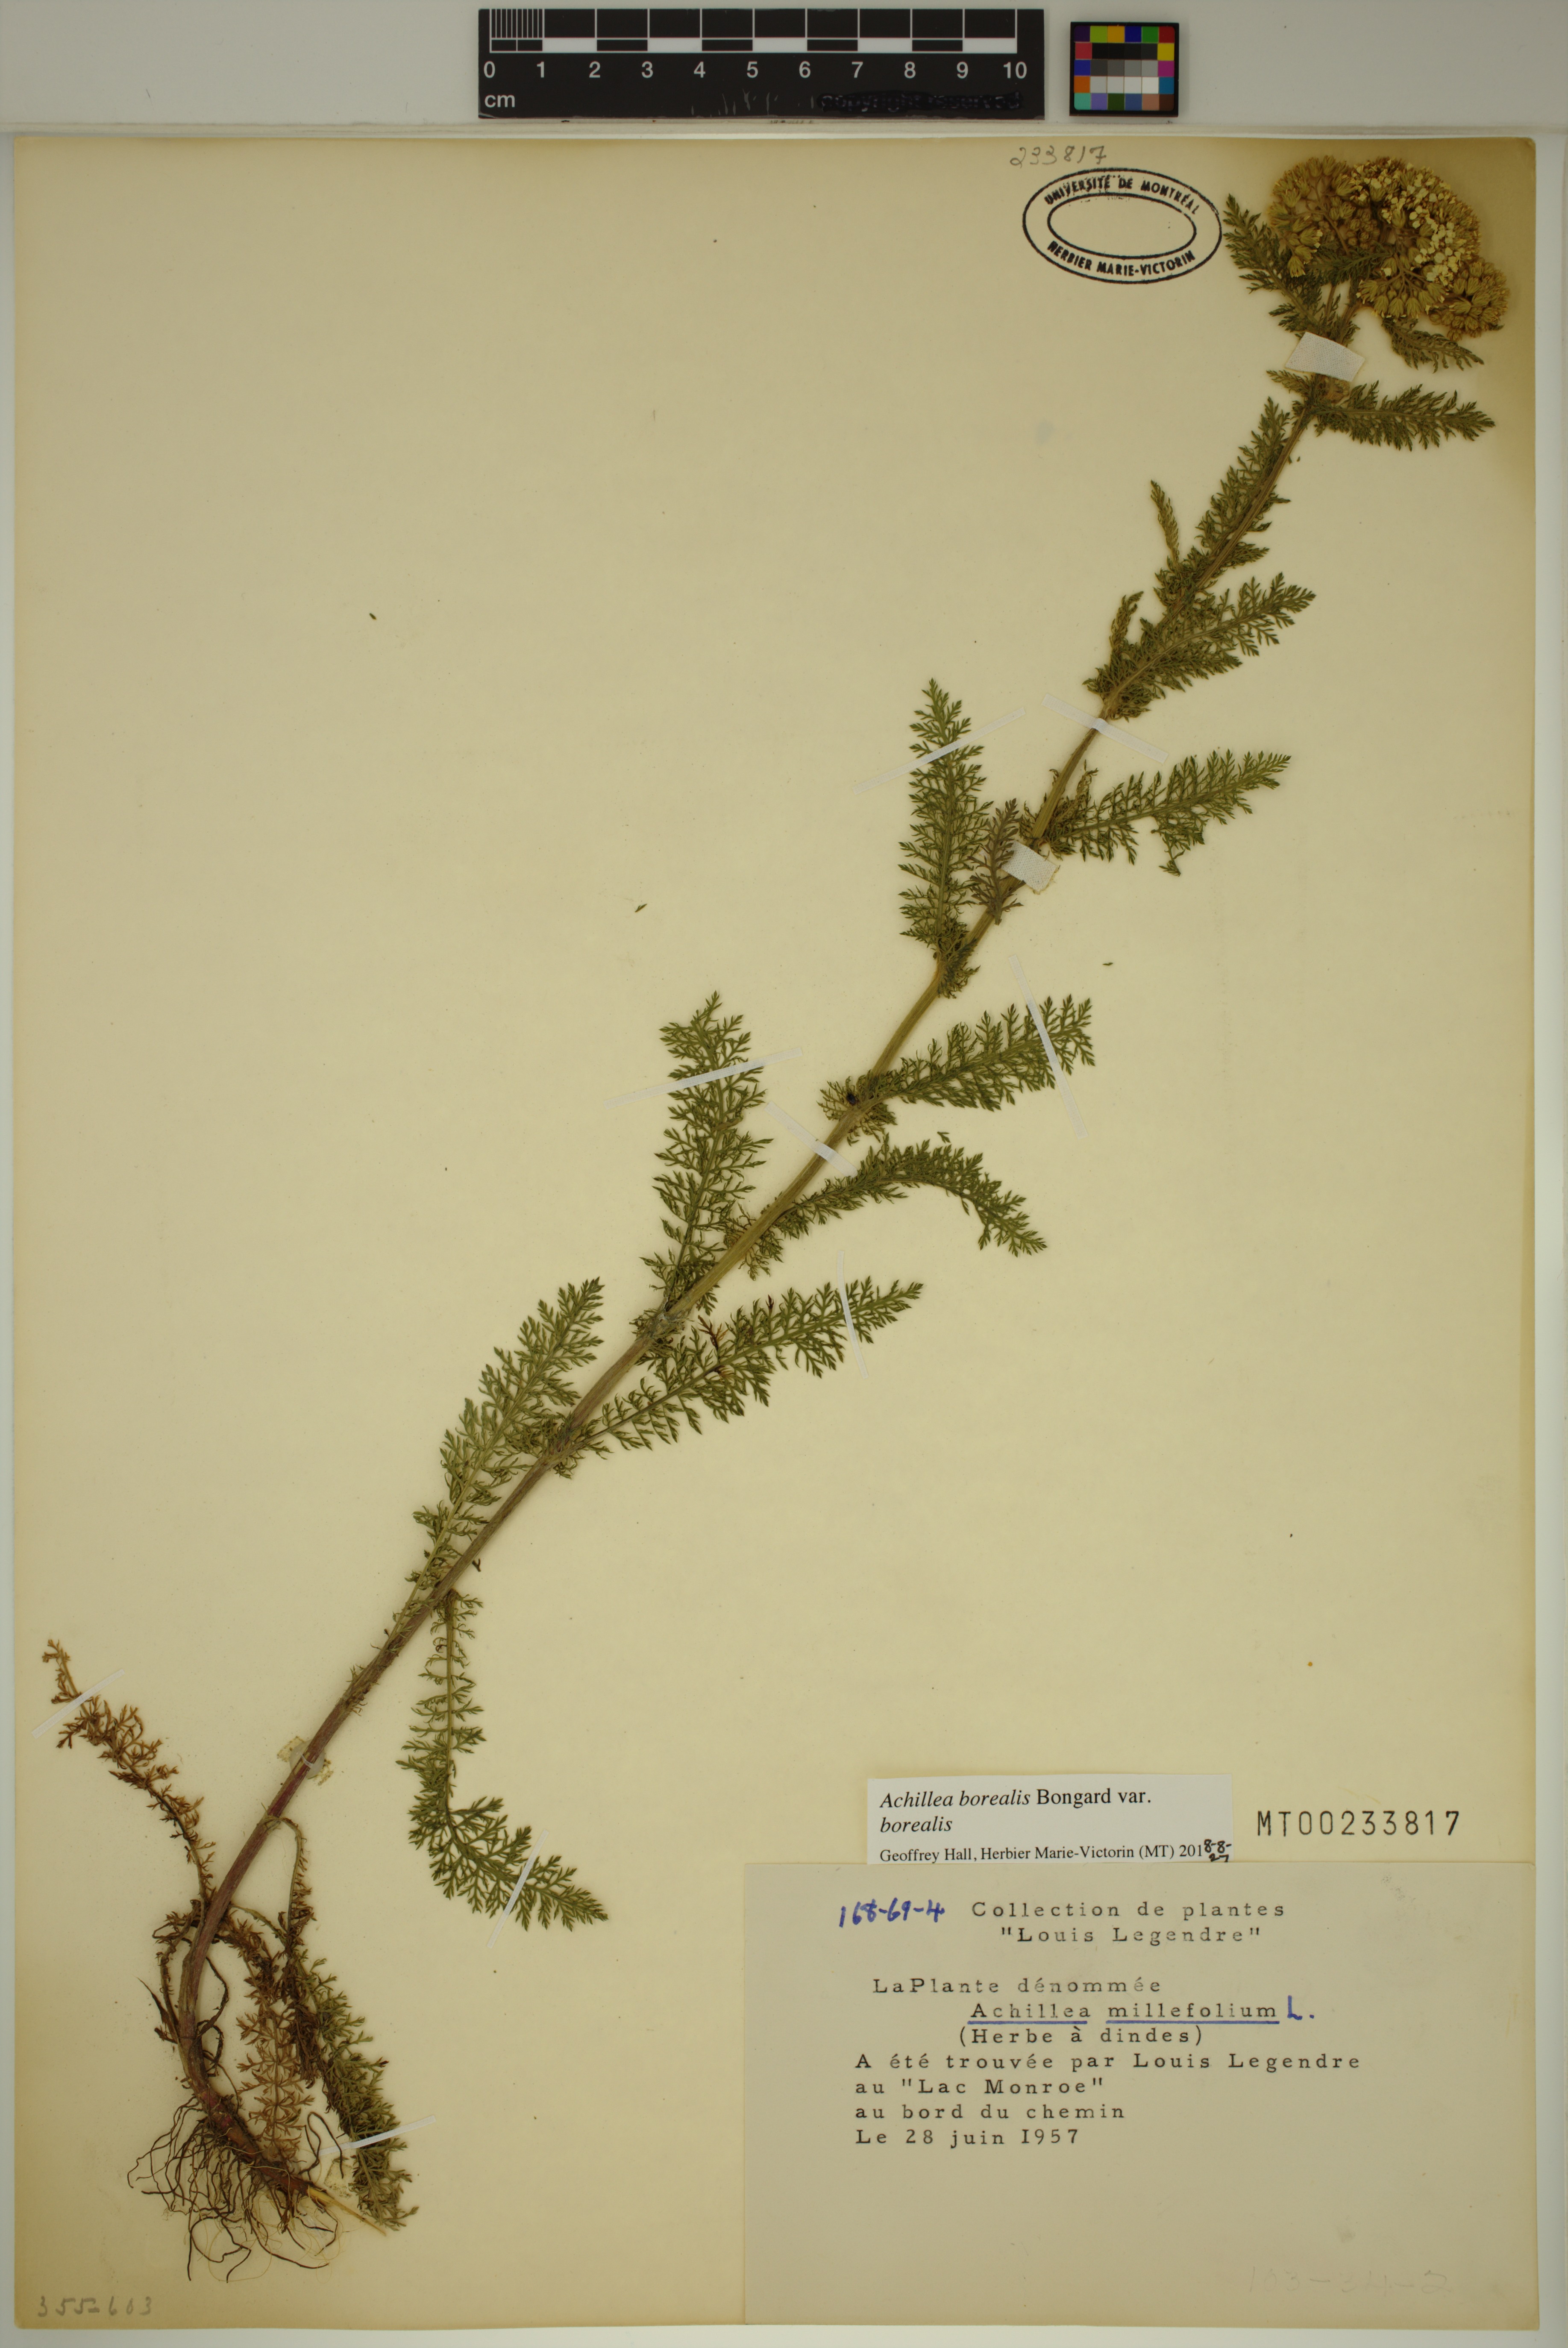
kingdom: Plantae
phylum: Tracheophyta
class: Magnoliopsida
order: Asterales
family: Asteraceae
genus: Achillea
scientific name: Achillea millefolium
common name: Yarrow
